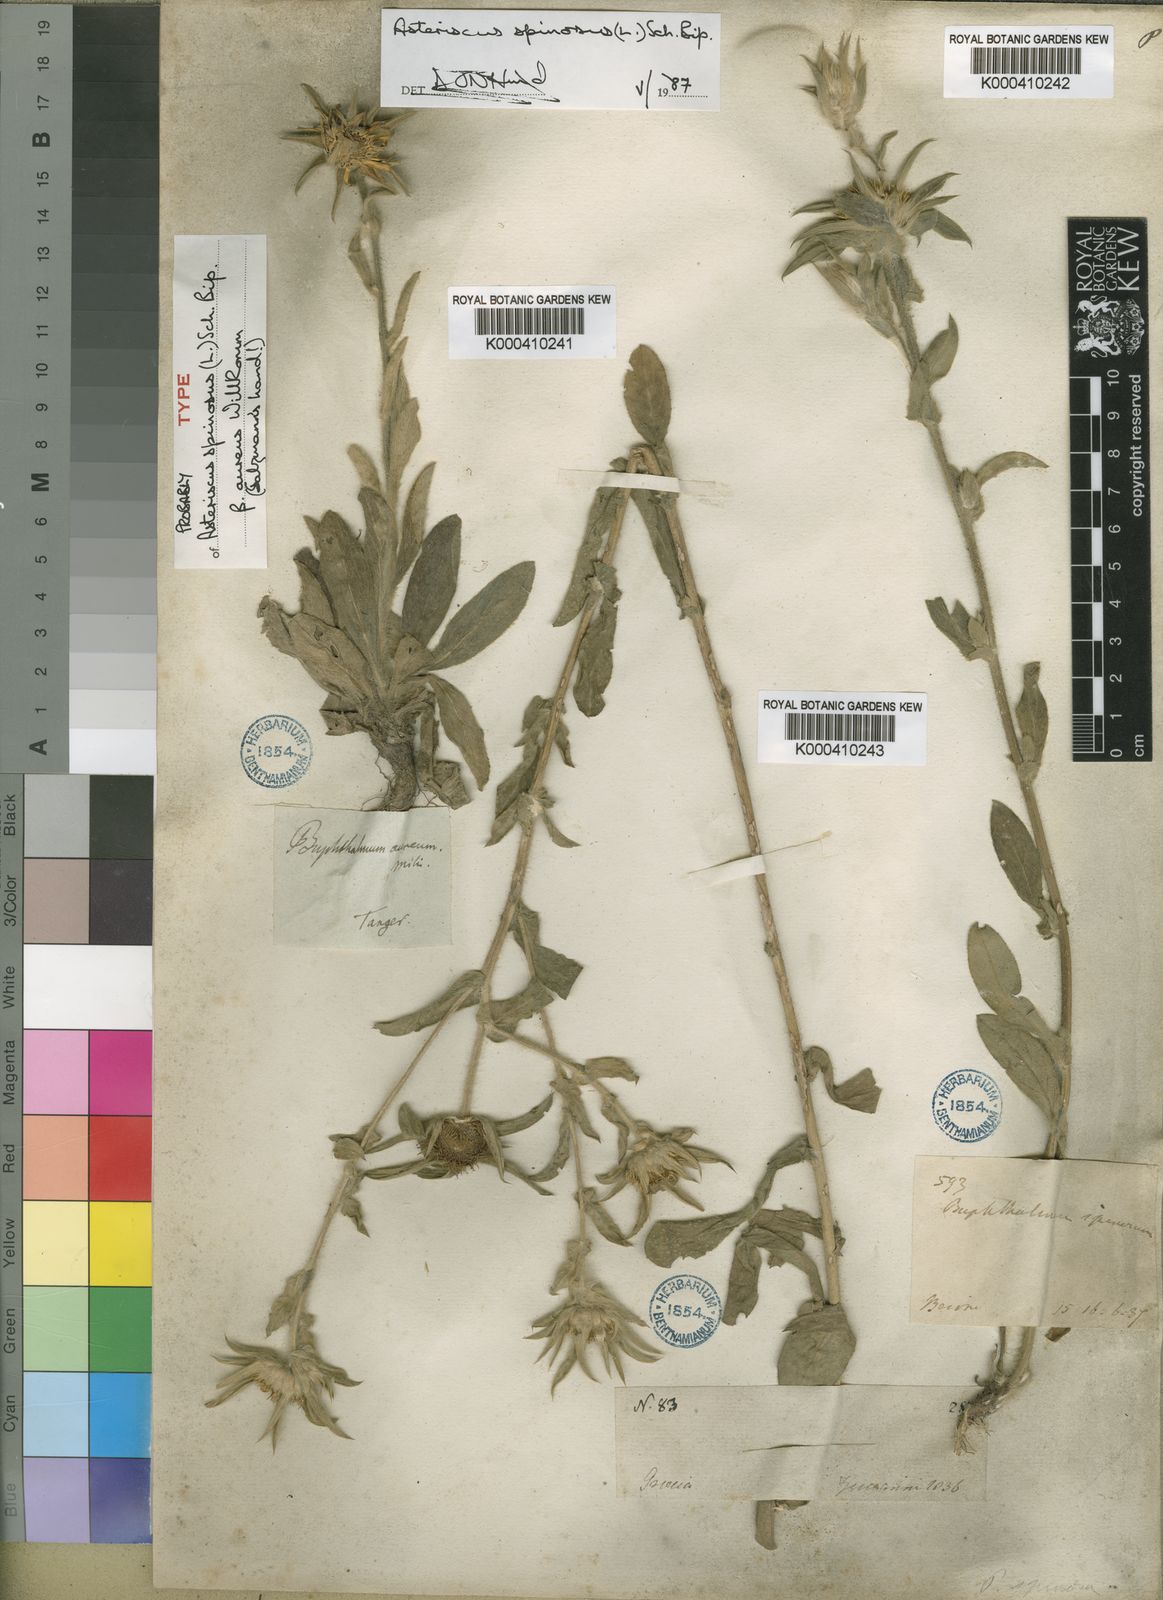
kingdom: Plantae
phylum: Tracheophyta
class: Magnoliopsida
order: Asterales
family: Asteraceae
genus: Pallenis
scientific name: Pallenis spinosa
